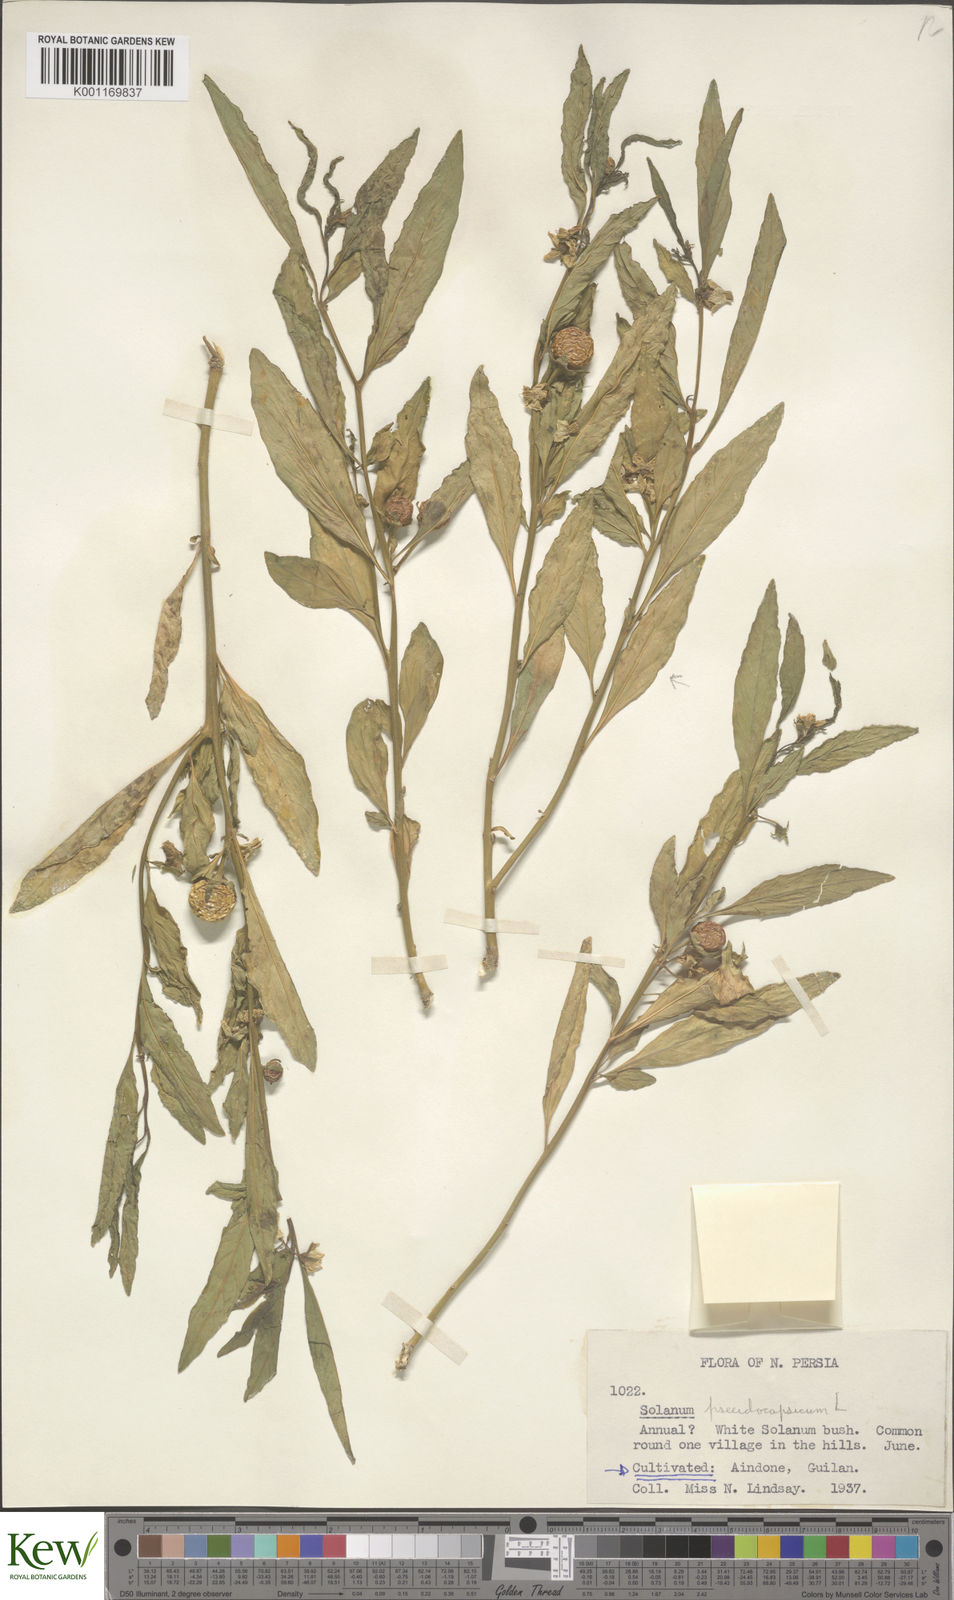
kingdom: Plantae
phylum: Tracheophyta
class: Magnoliopsida
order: Solanales
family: Solanaceae
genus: Solanum
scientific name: Solanum pseudocapsicum
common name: Jerusalem cherry
